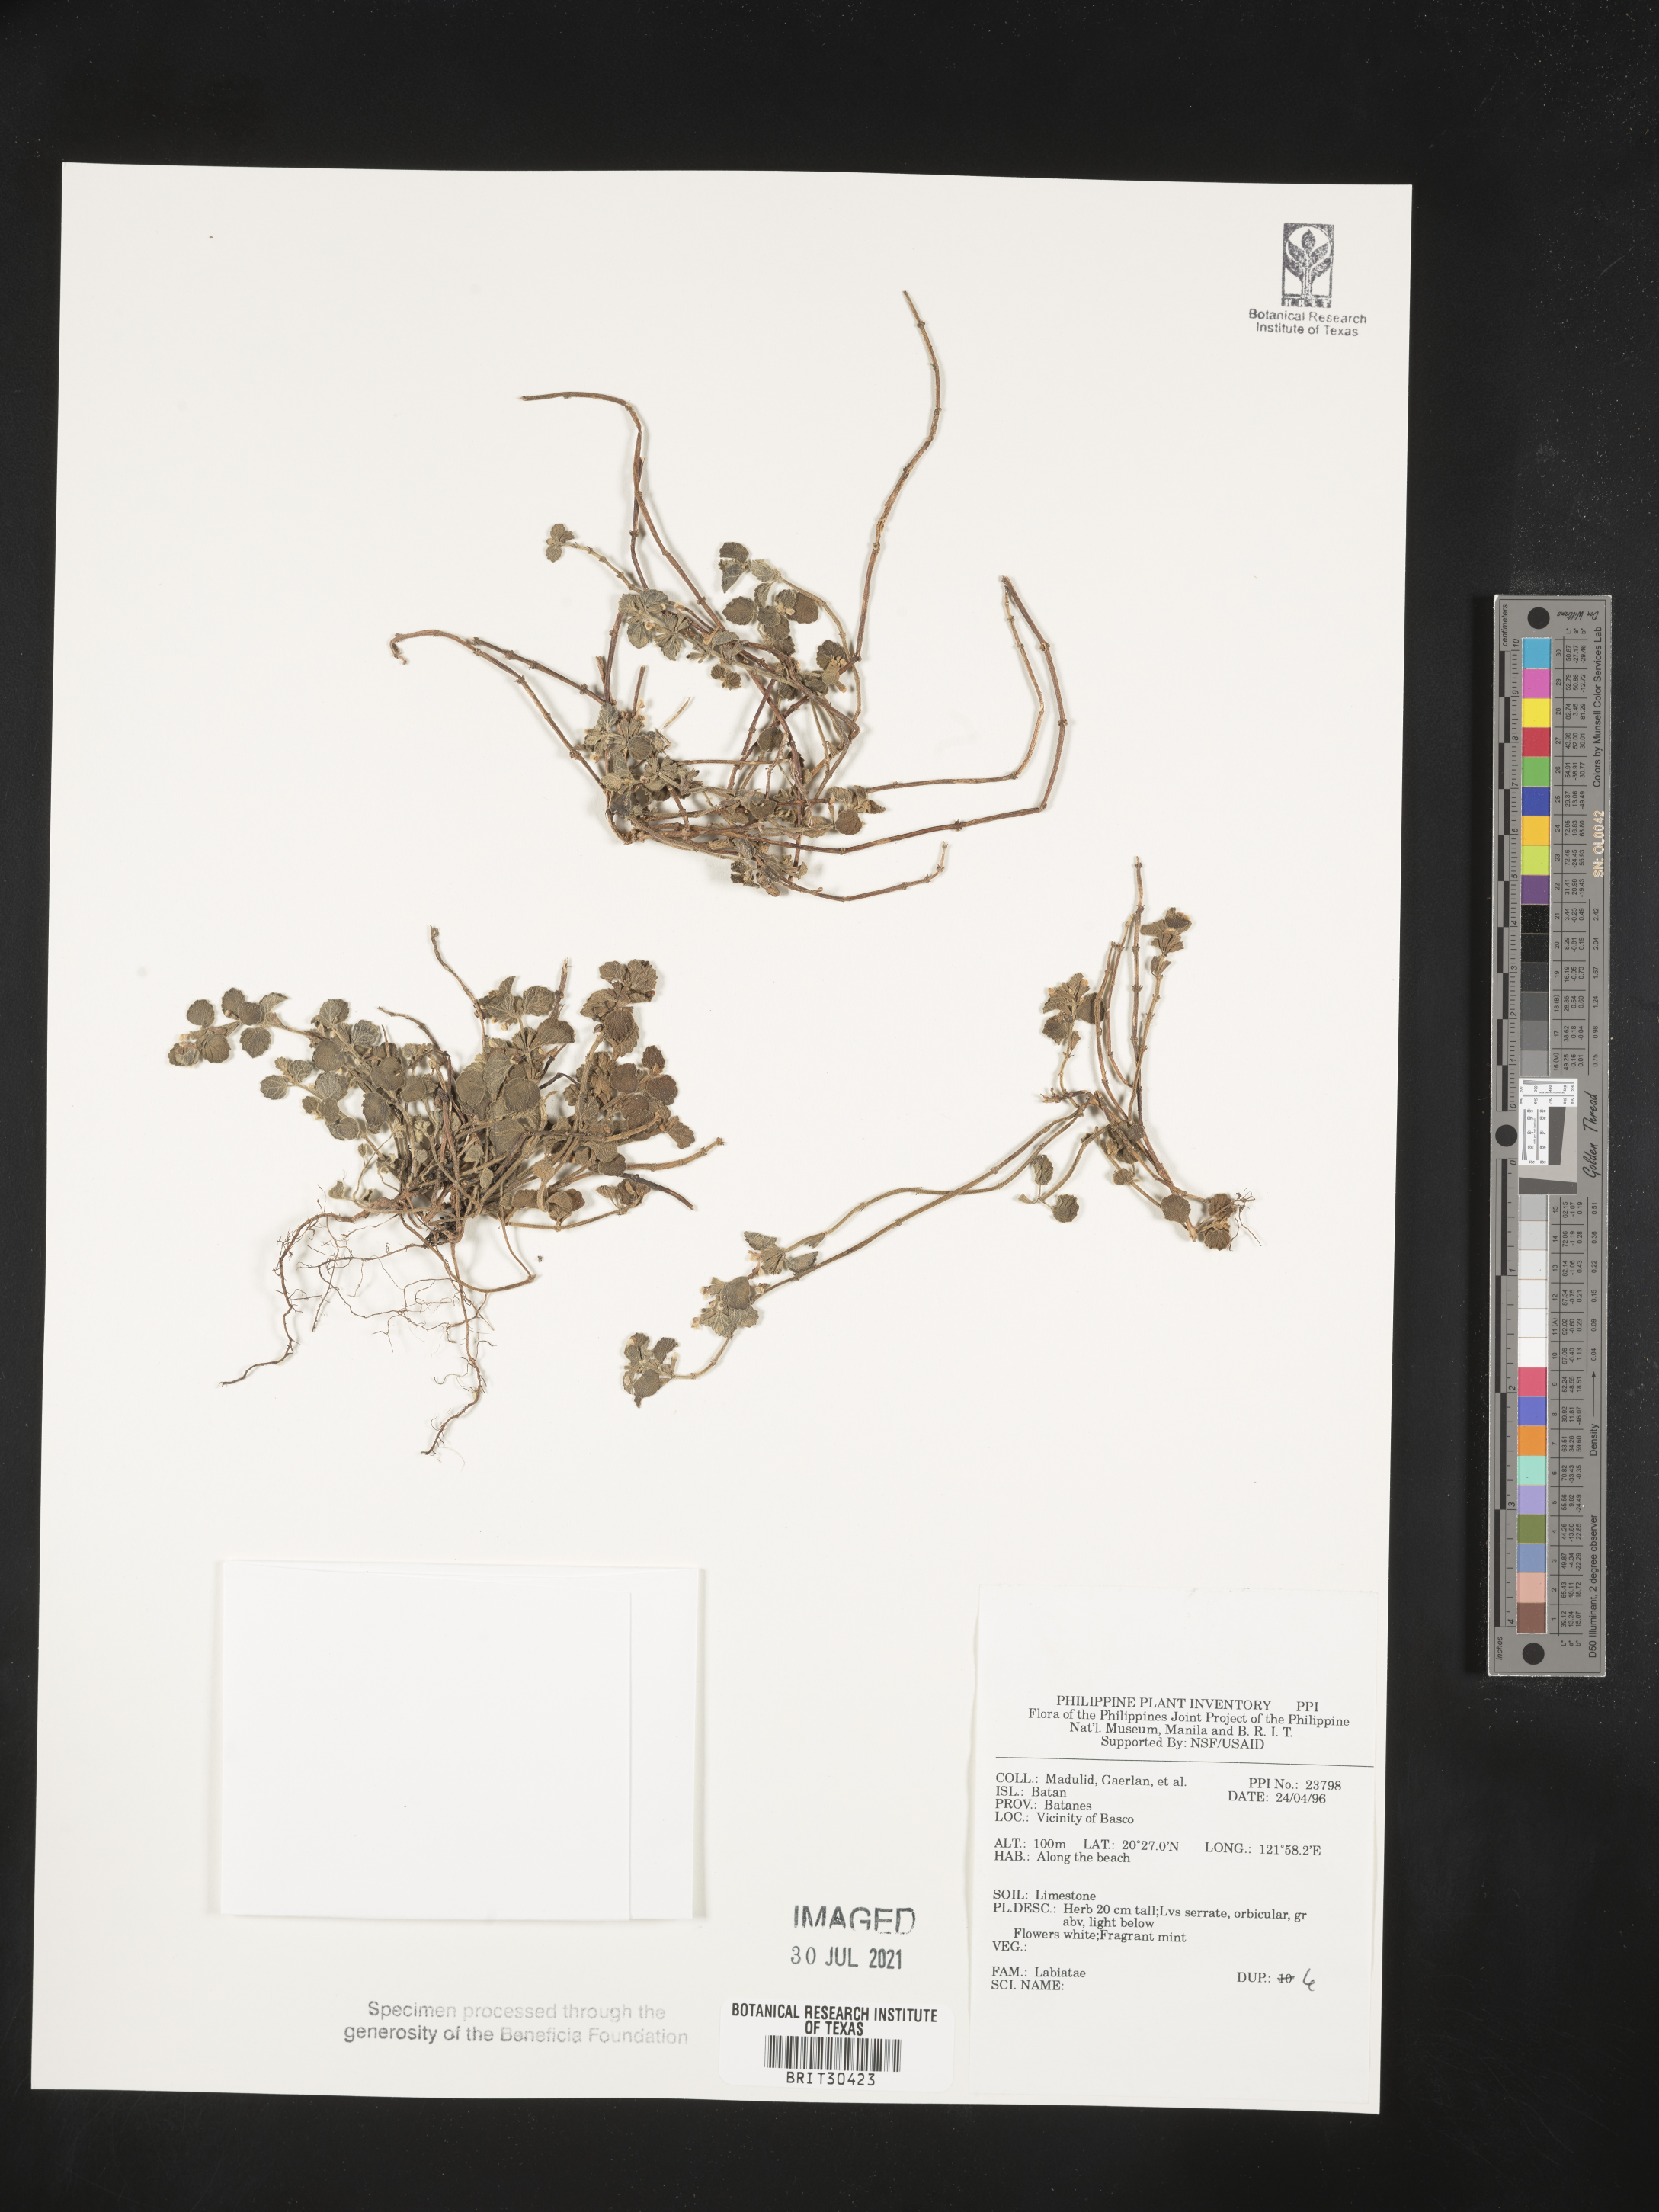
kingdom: Plantae
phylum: Tracheophyta
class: Magnoliopsida
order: Lamiales
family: Lamiaceae
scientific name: Lamiaceae
